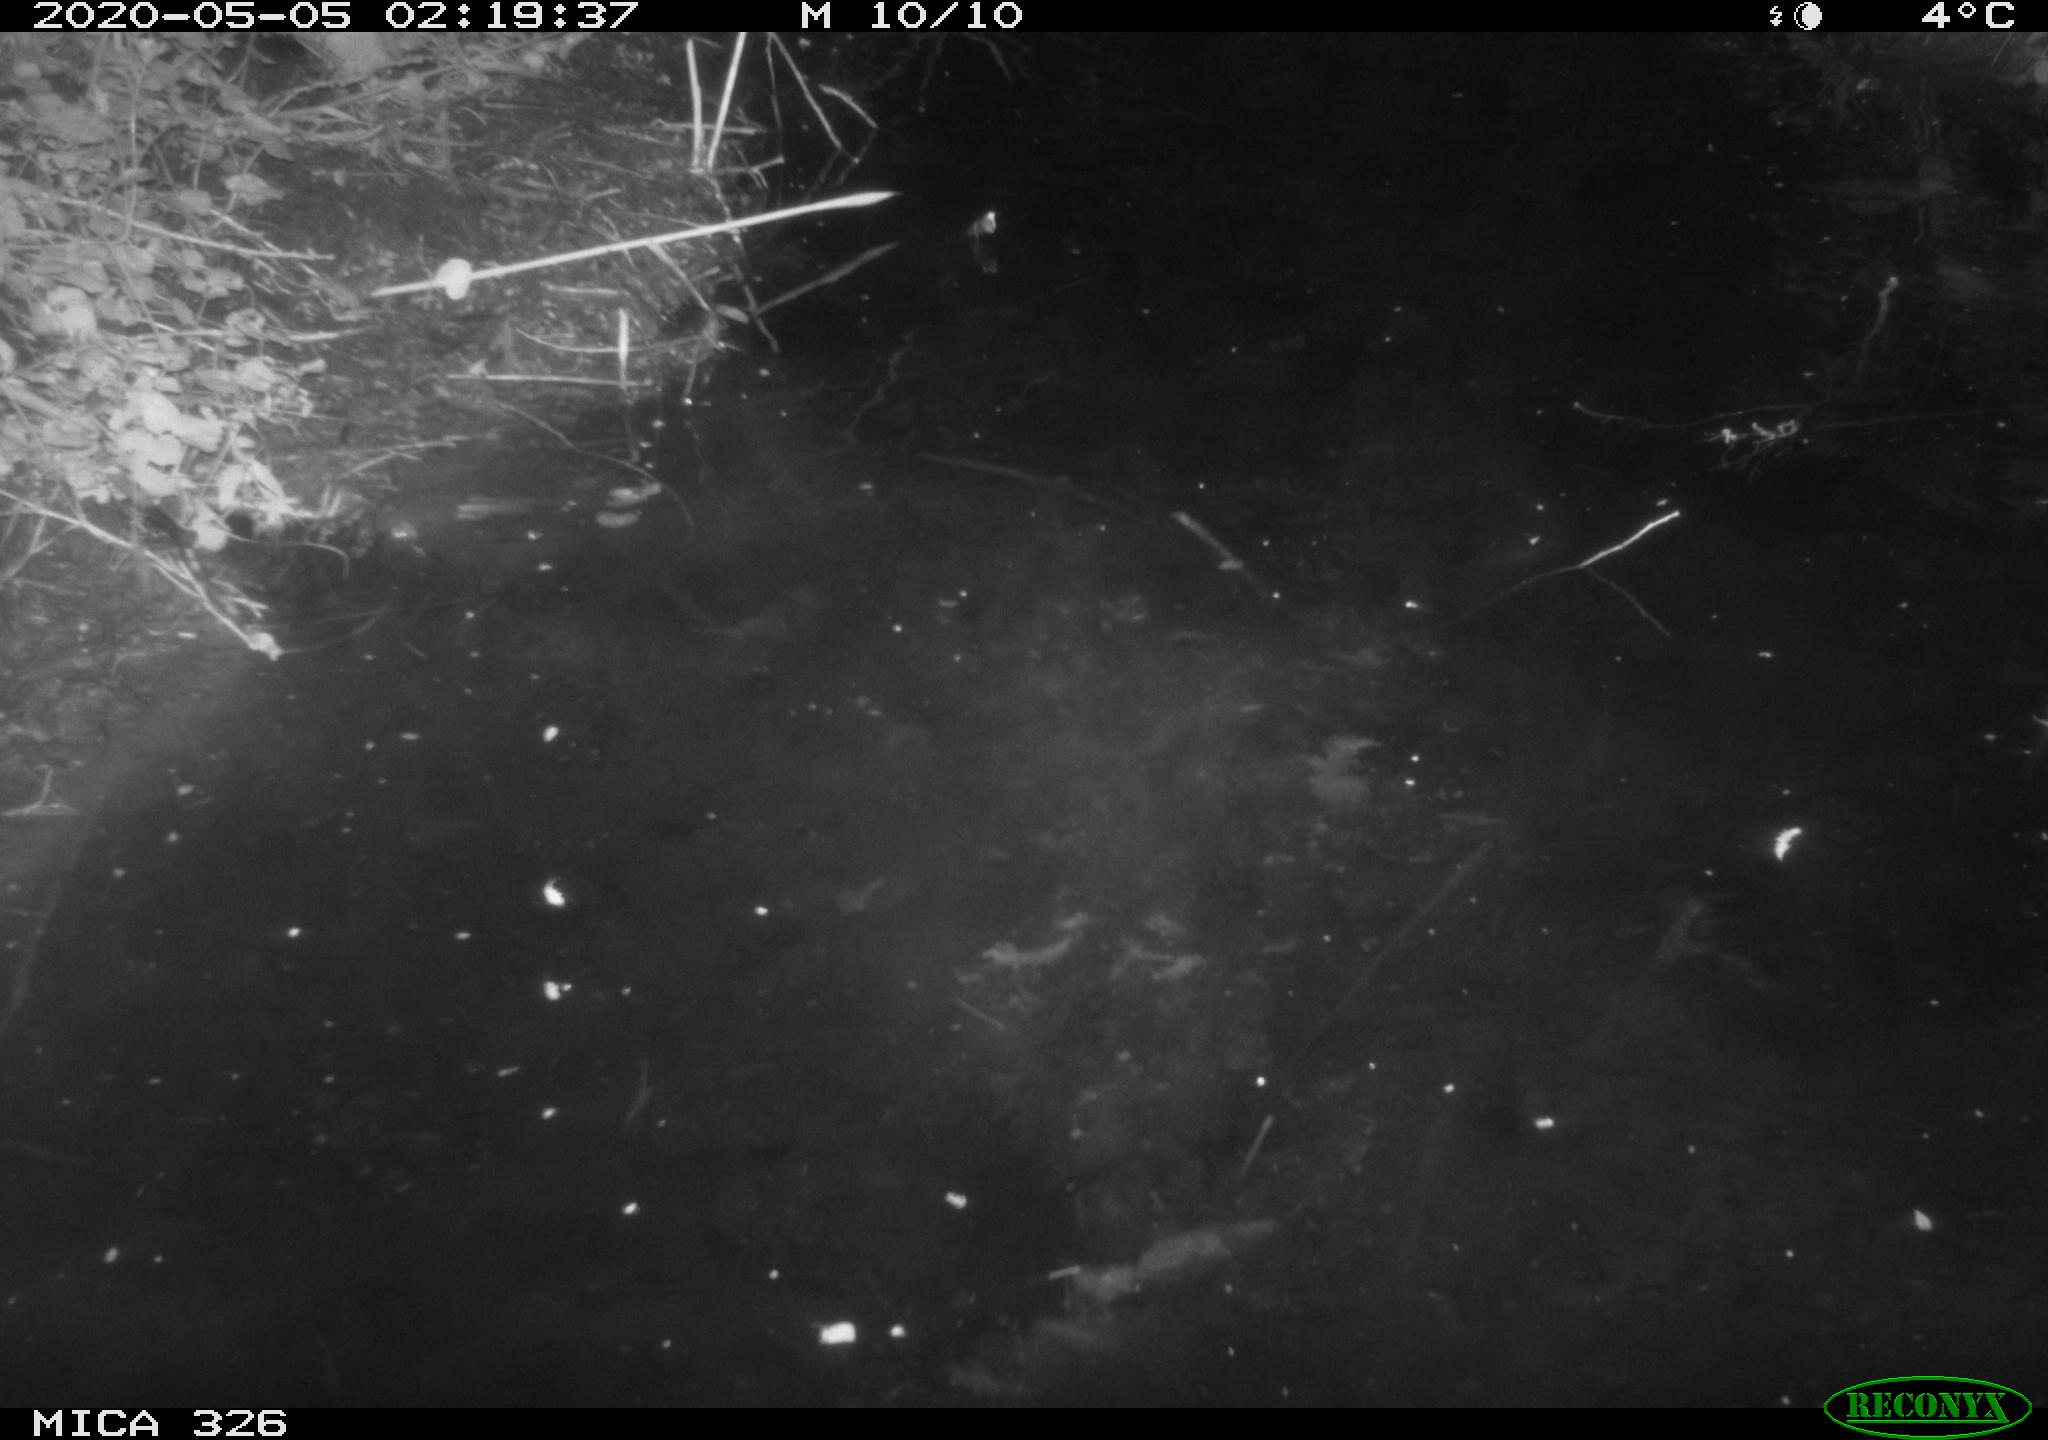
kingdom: Animalia
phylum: Chordata
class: Mammalia
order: Rodentia
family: Cricetidae
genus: Ondatra
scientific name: Ondatra zibethicus
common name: Muskrat
